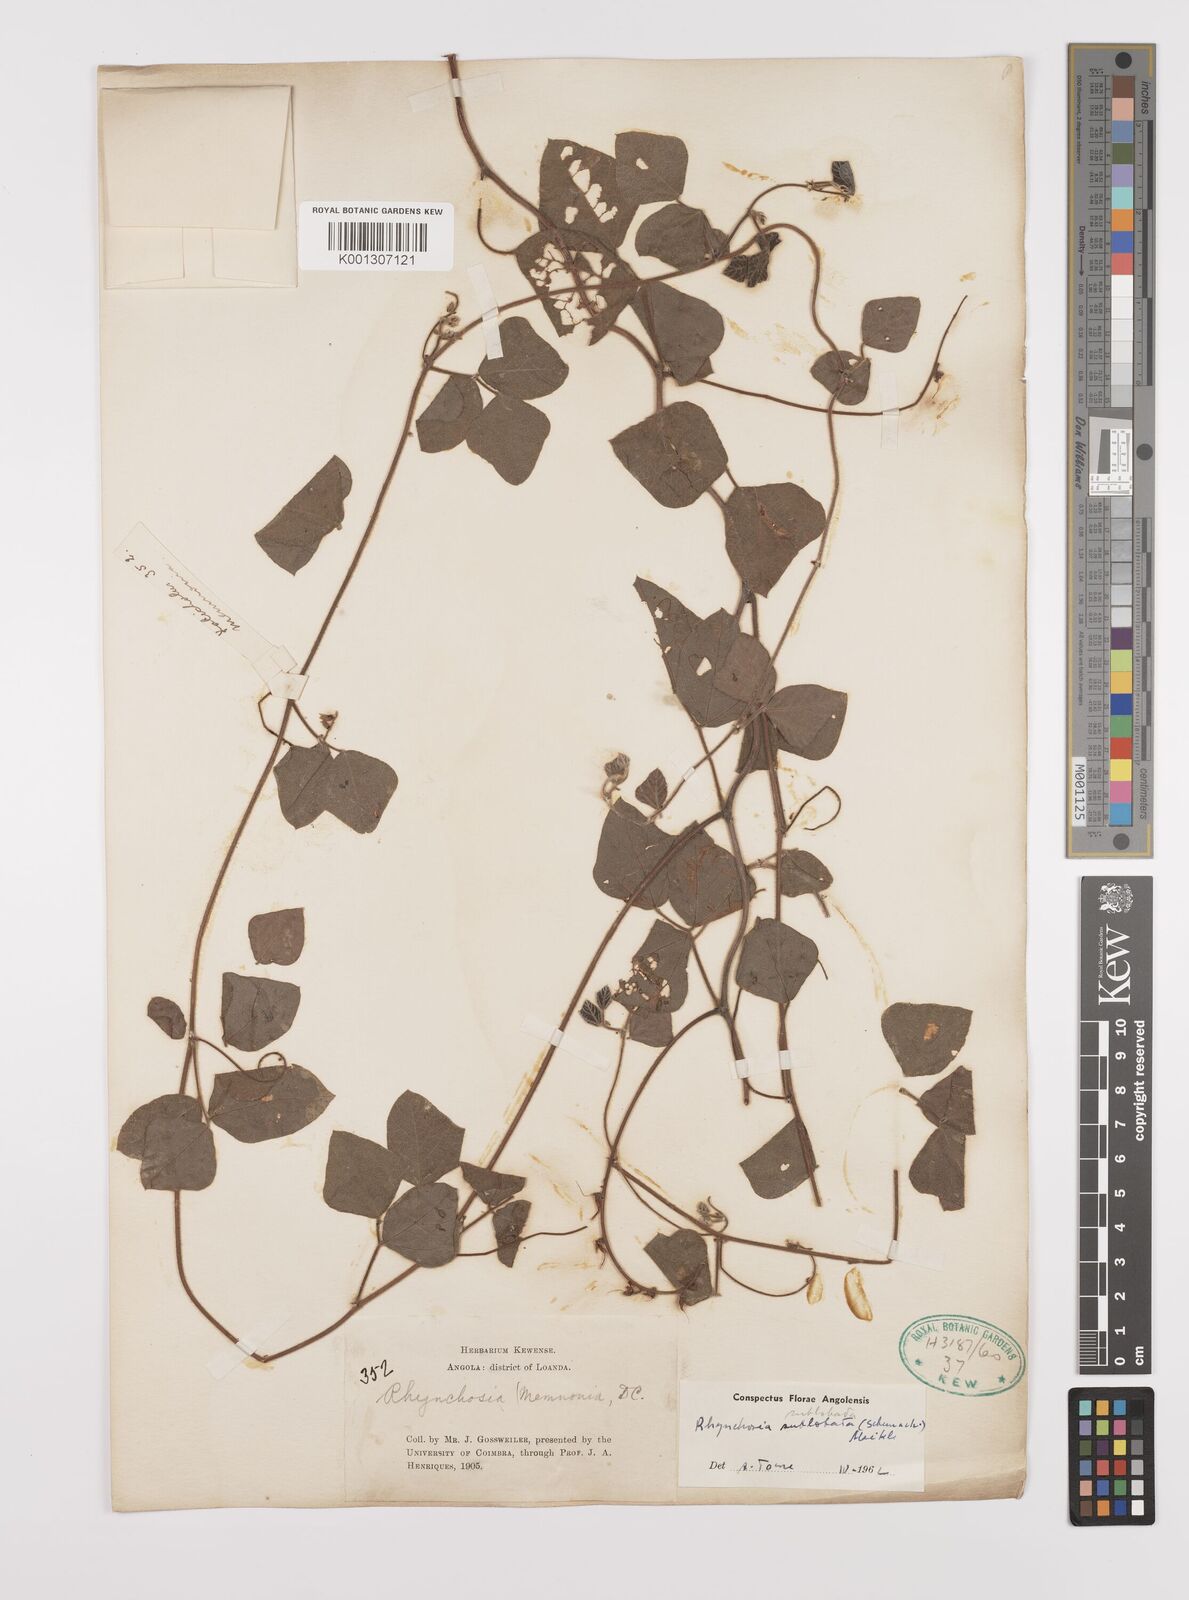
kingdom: Plantae
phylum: Tracheophyta
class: Magnoliopsida
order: Fabales
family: Fabaceae
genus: Rhynchosia
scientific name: Rhynchosia sublobata
